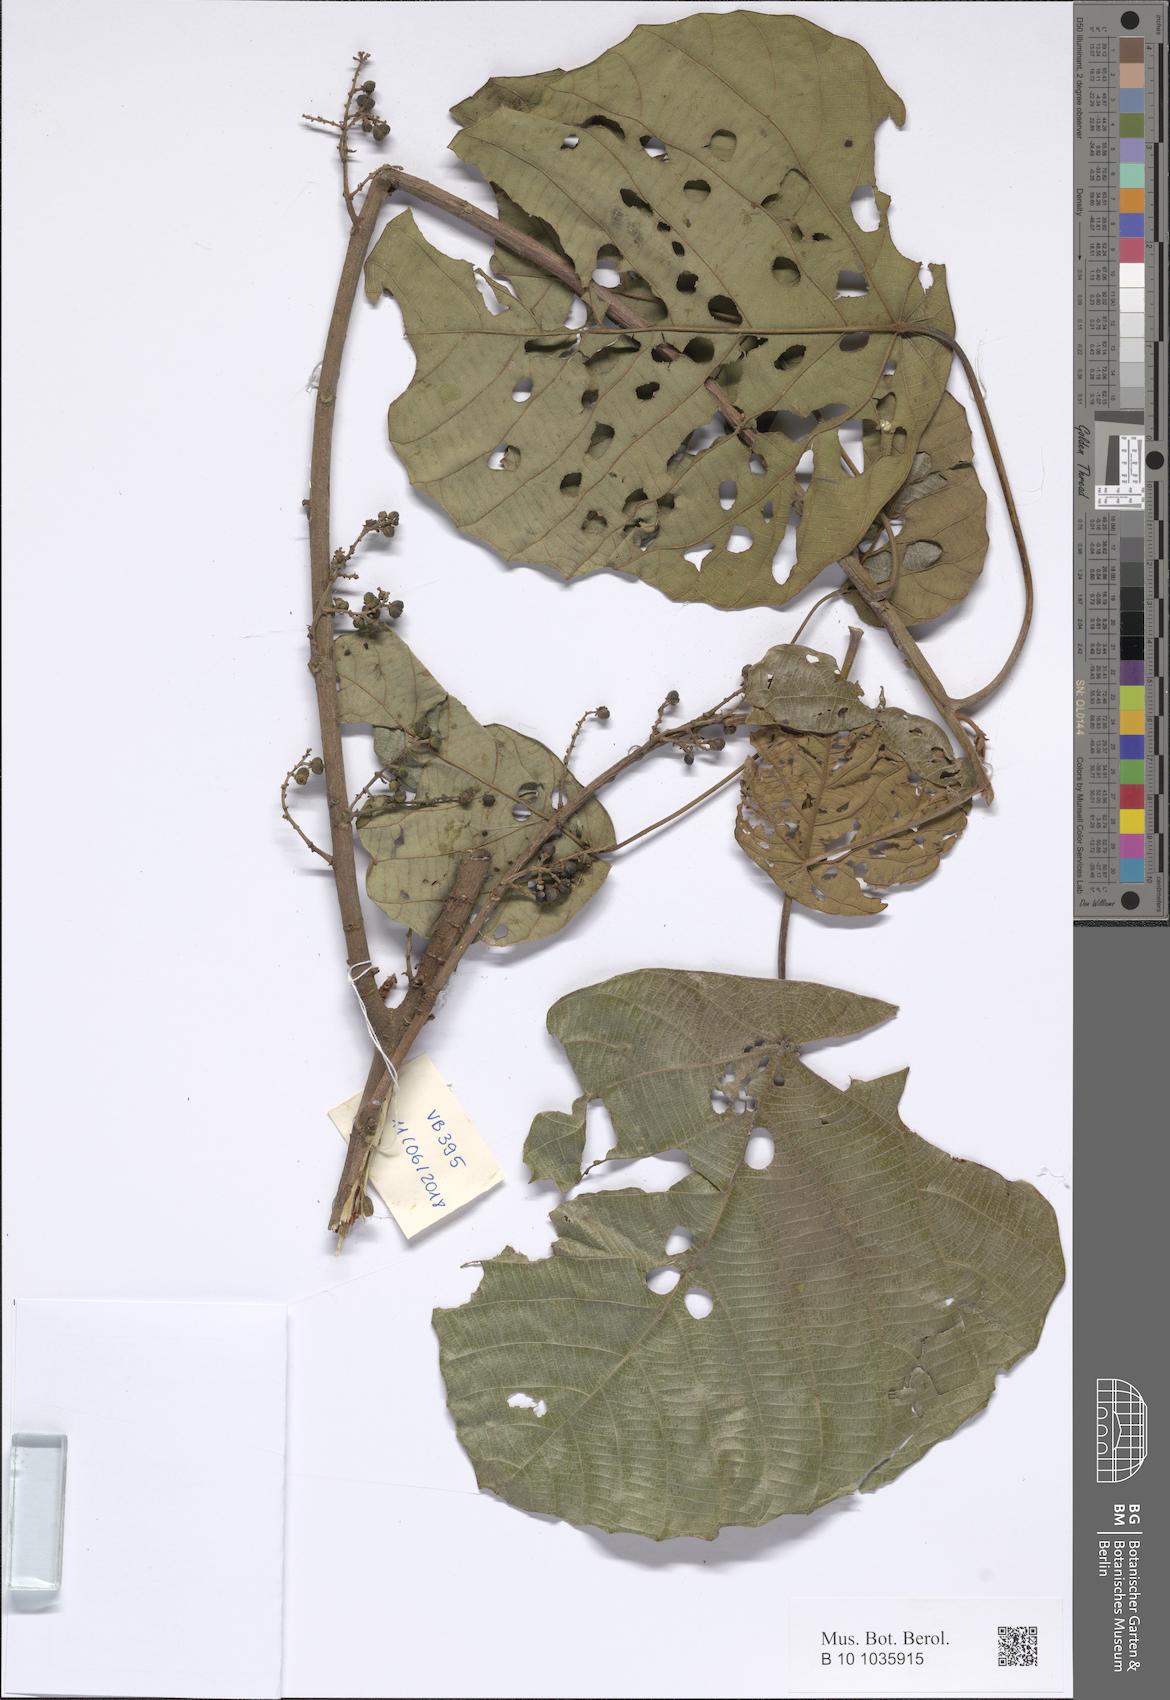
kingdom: Plantae
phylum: Tracheophyta
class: Magnoliopsida
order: Malpighiales
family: Euphorbiaceae
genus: Macaranga
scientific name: Macaranga
